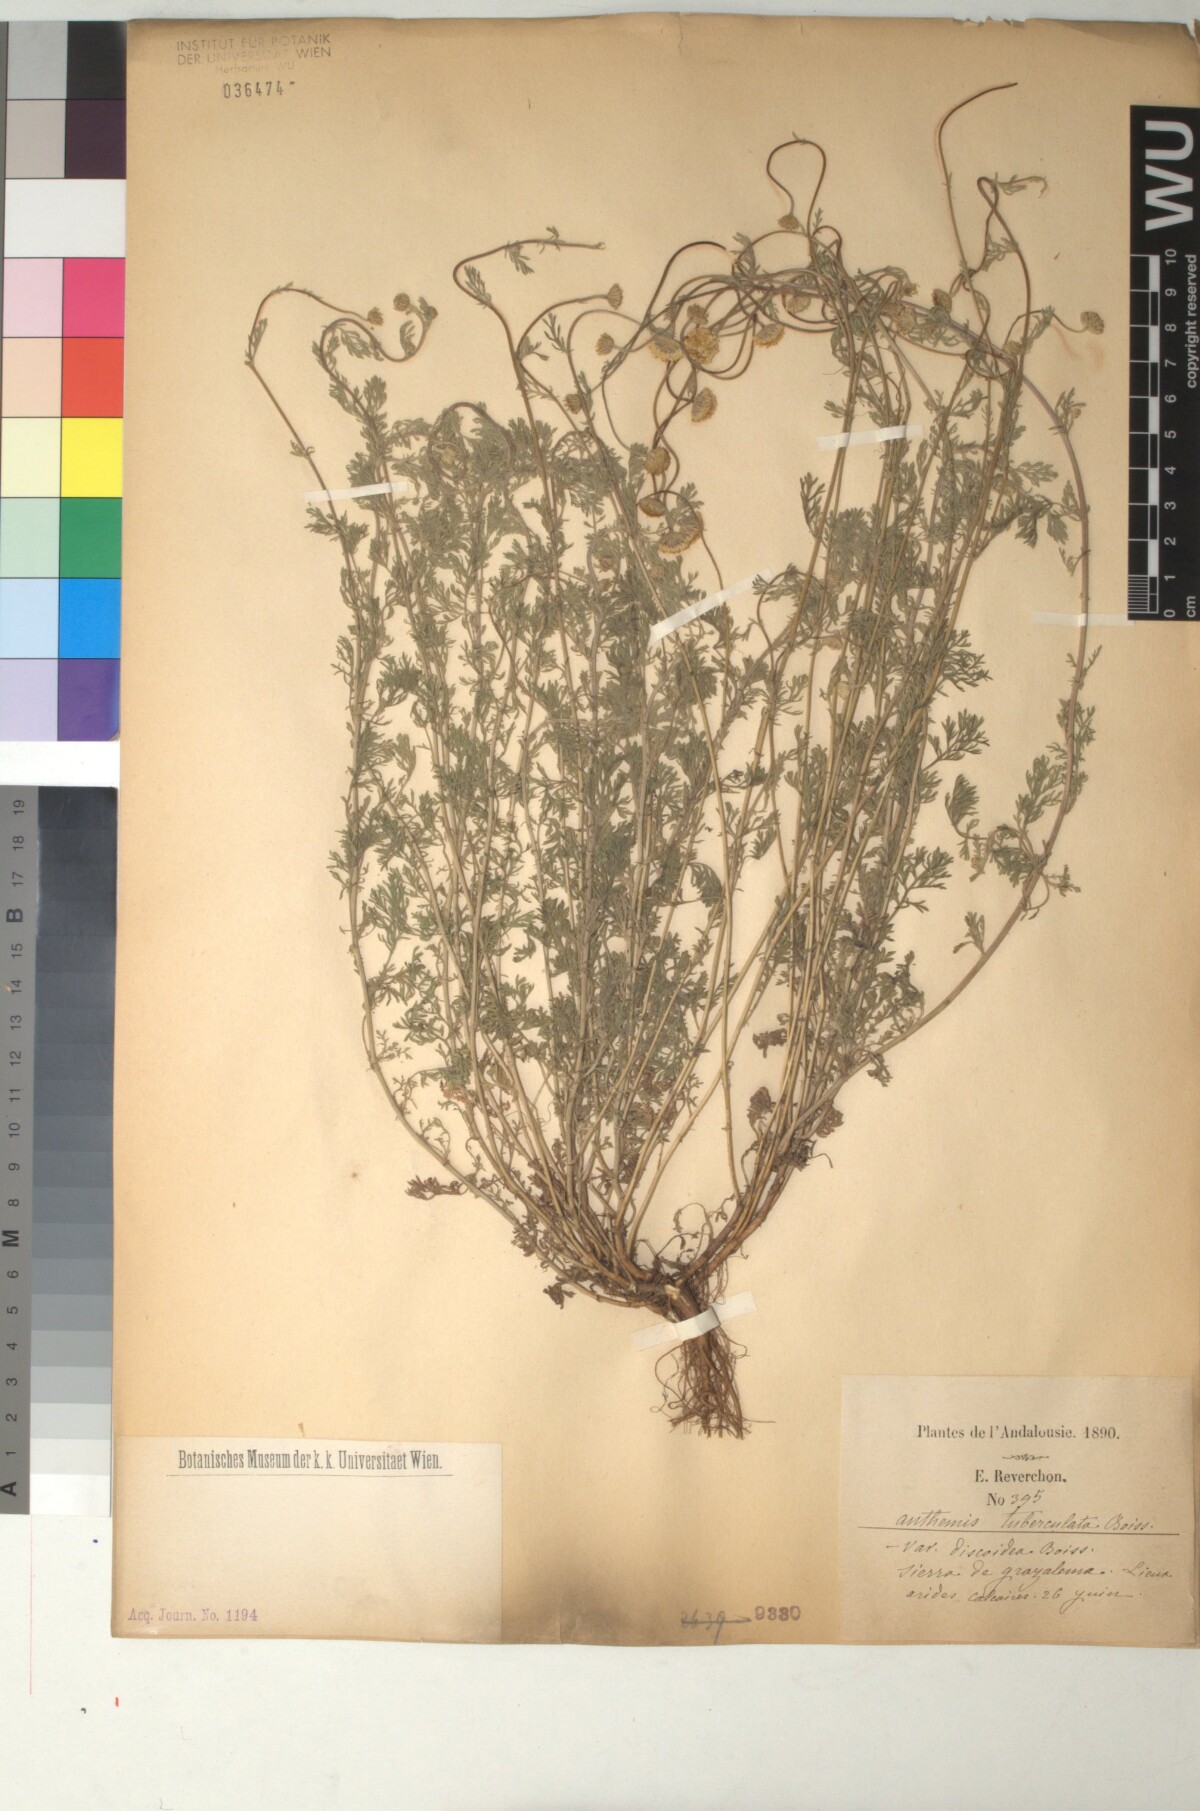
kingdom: Plantae
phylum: Tracheophyta
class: Magnoliopsida
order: Asterales
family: Asteraceae
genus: Anthemis
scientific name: Anthemis pedunculata
